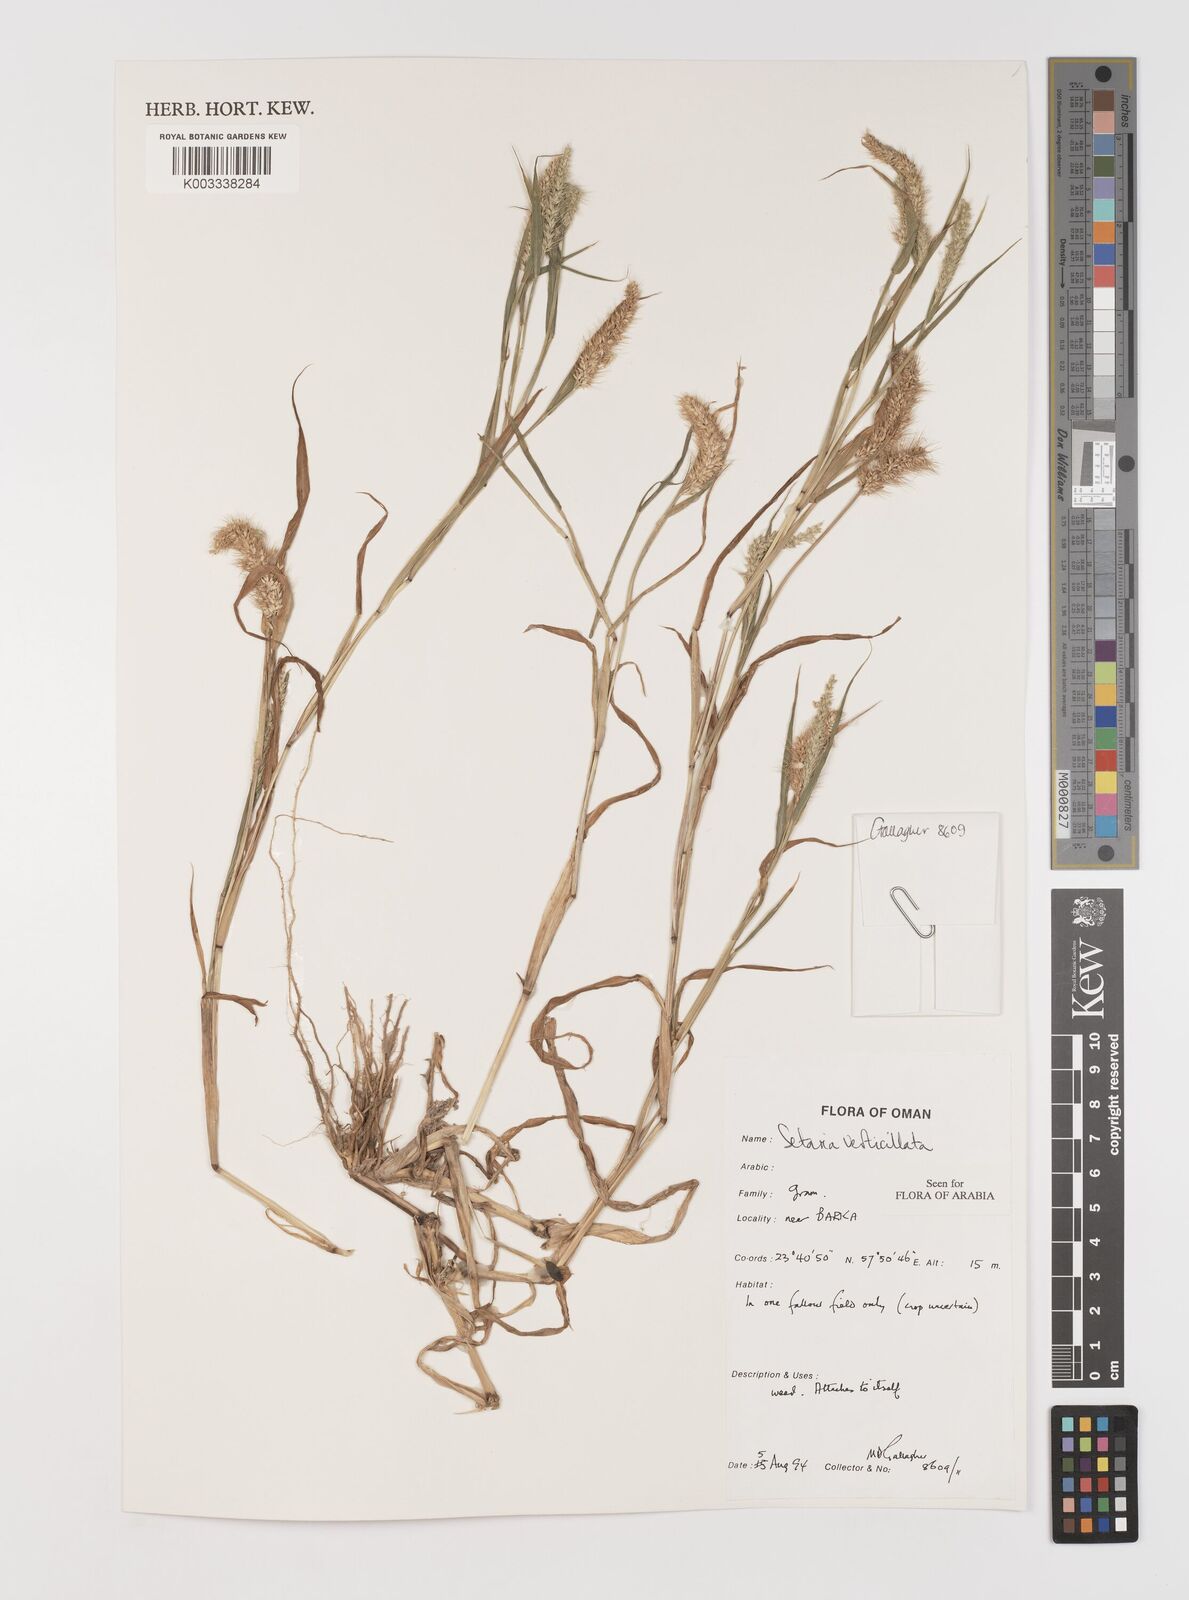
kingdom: Plantae
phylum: Tracheophyta
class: Liliopsida
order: Poales
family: Poaceae
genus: Setaria
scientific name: Setaria verticillata
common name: Hooked bristlegrass
